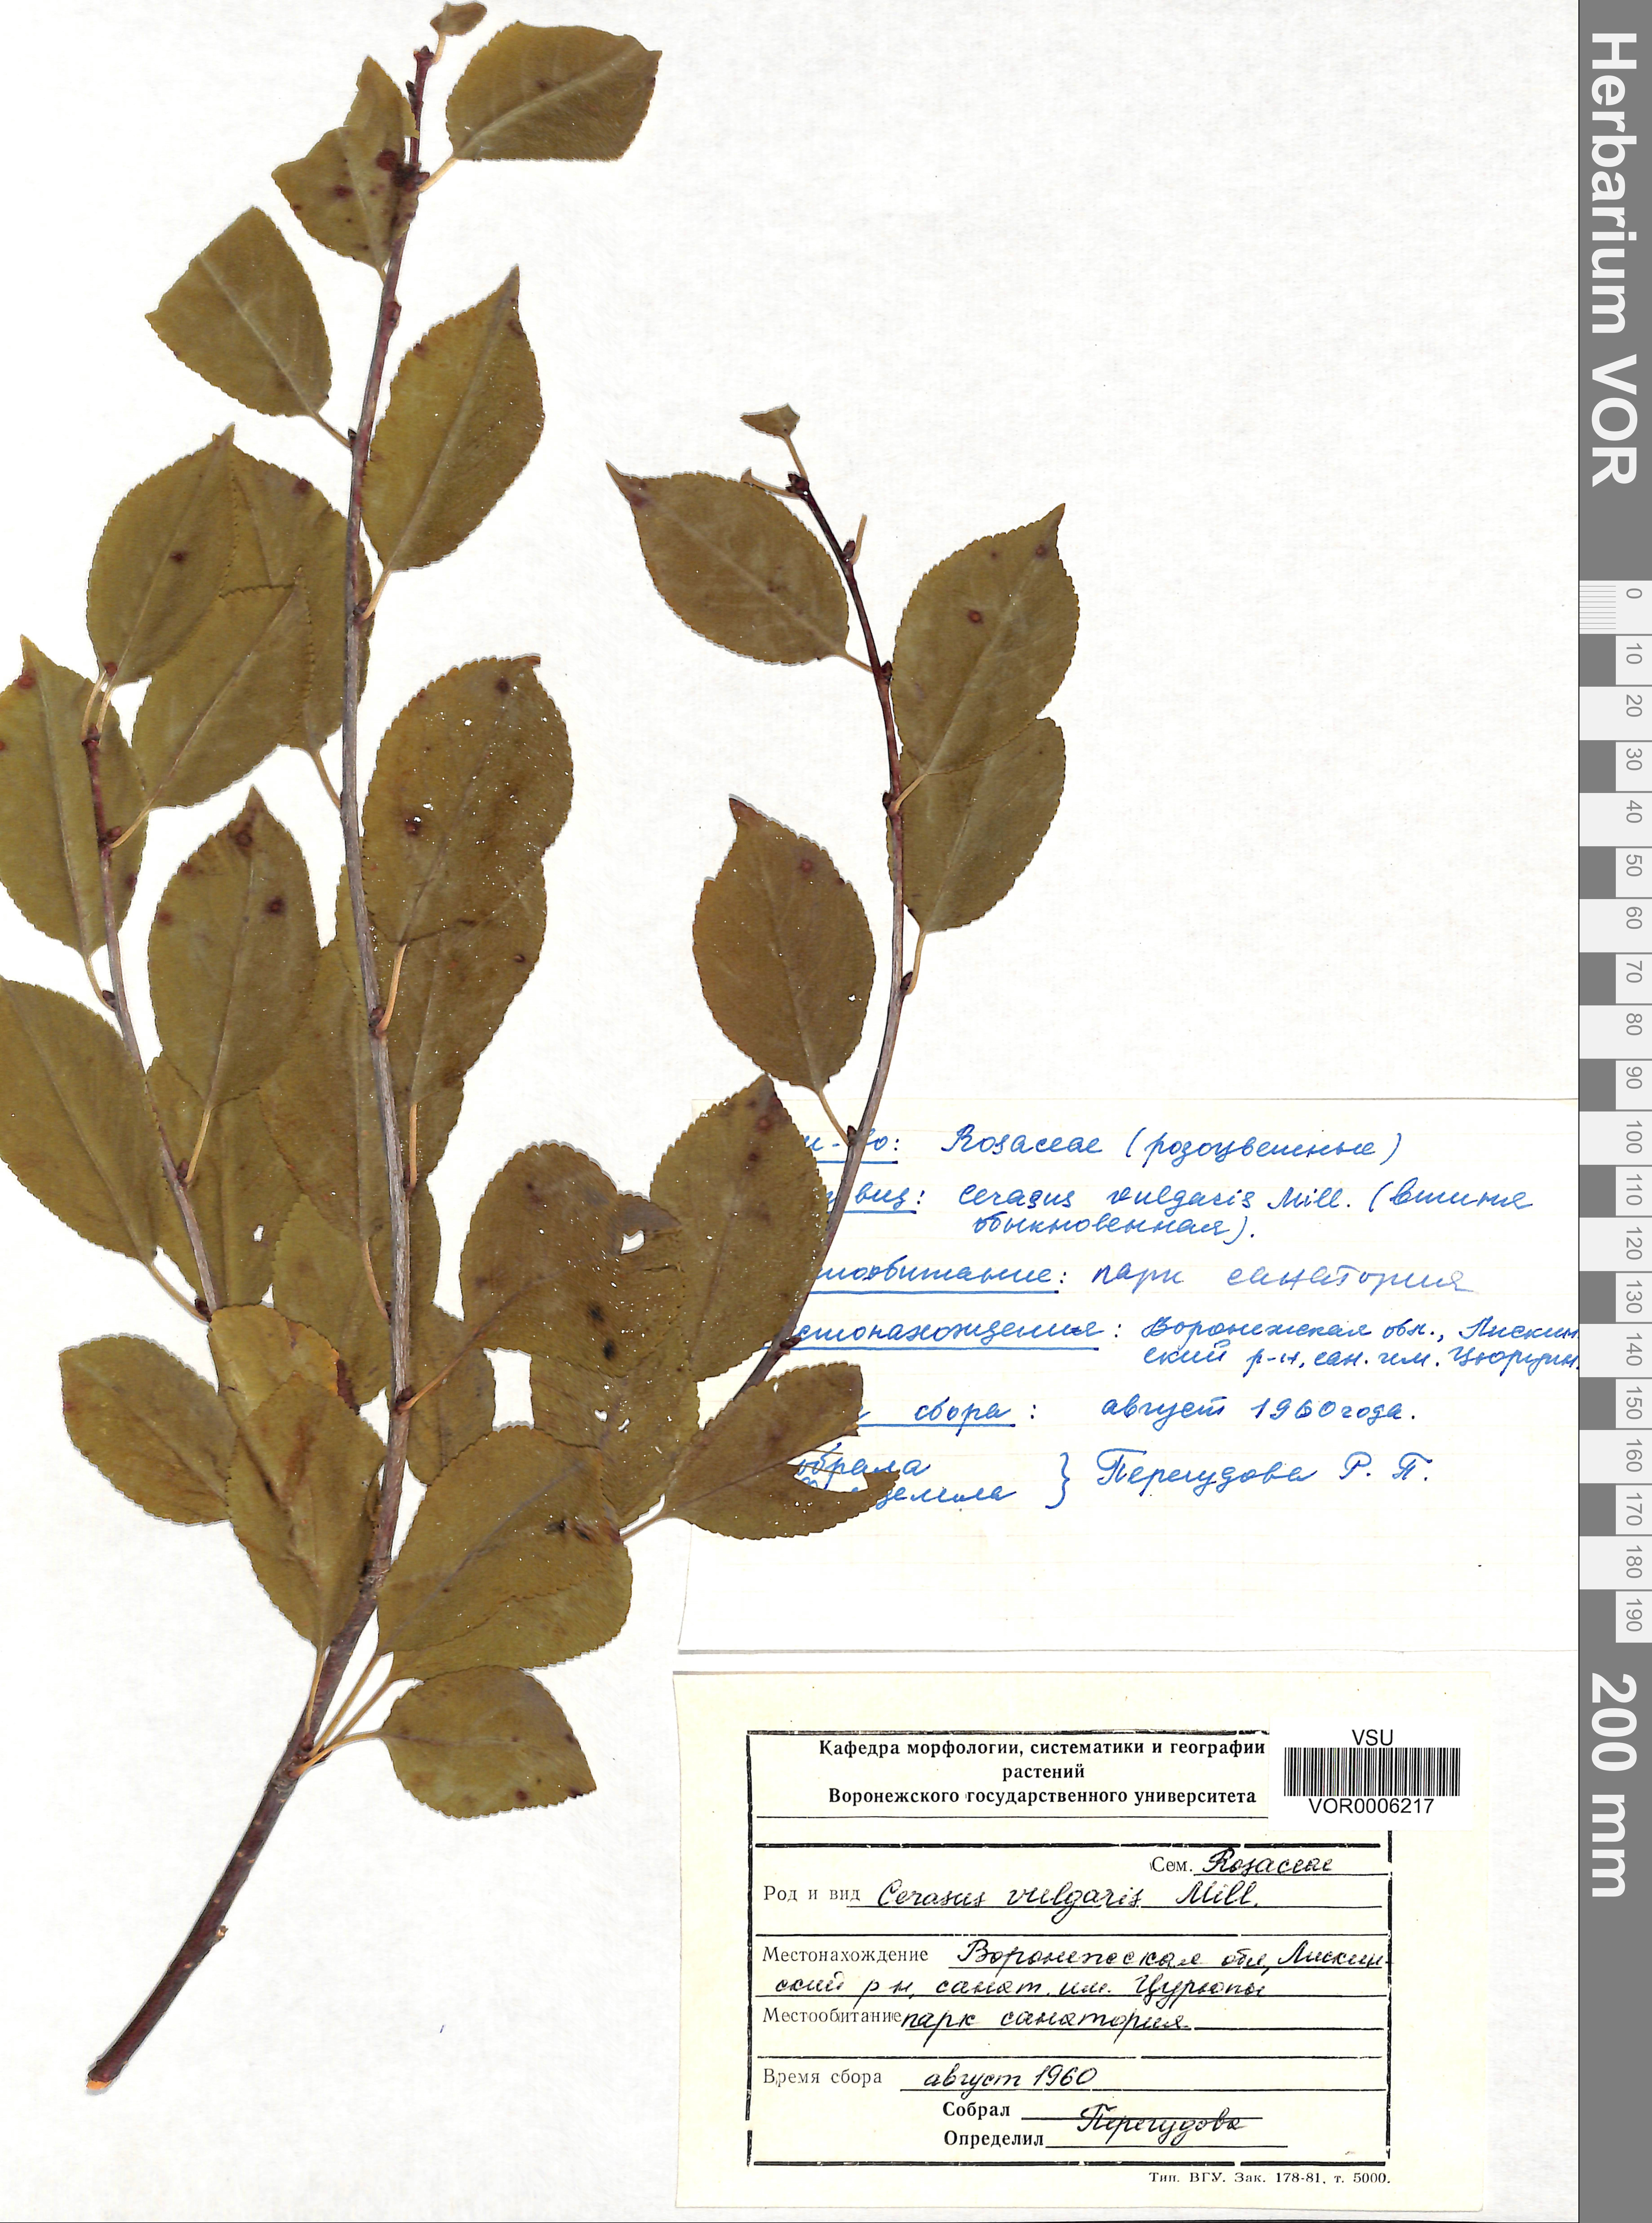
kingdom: Plantae
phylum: Tracheophyta
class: Magnoliopsida
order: Rosales
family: Rosaceae
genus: Prunus
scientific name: Prunus fruticosa
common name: European dwarf cherry
